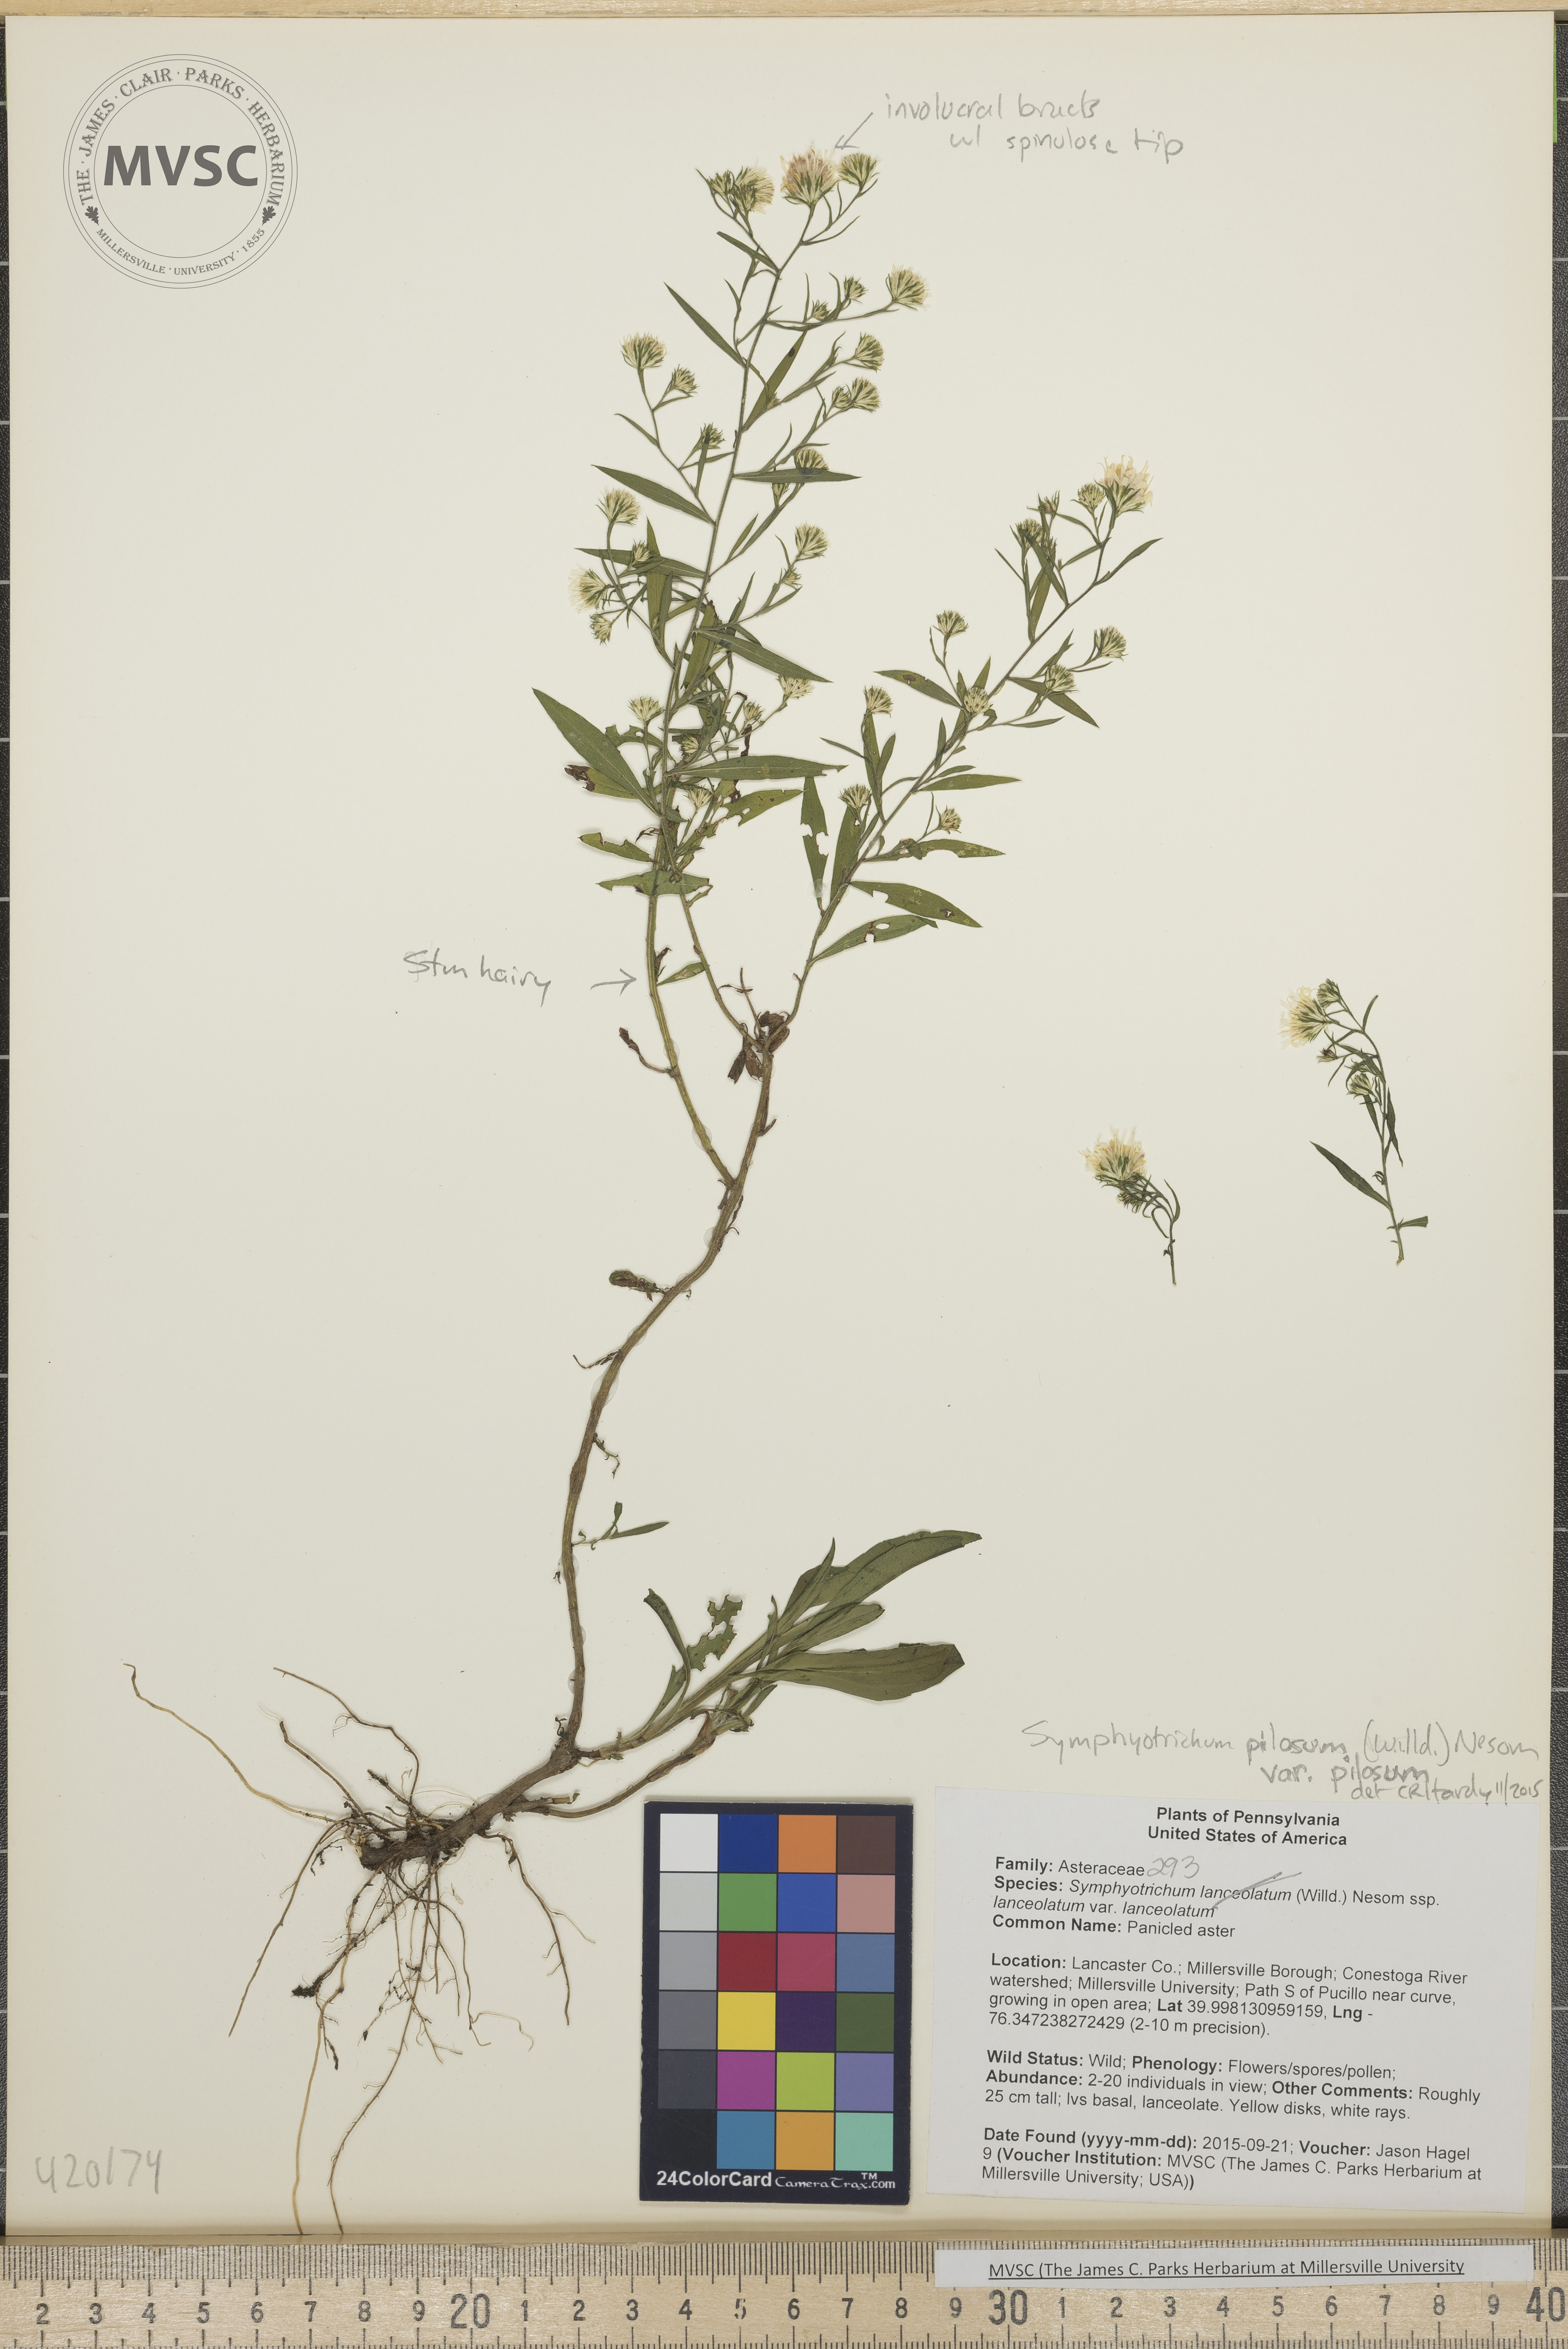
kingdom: Plantae
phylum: Tracheophyta
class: Magnoliopsida
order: Asterales
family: Asteraceae
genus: Symphyotrichum
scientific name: Symphyotrichum pilosum
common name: Heath Aster
